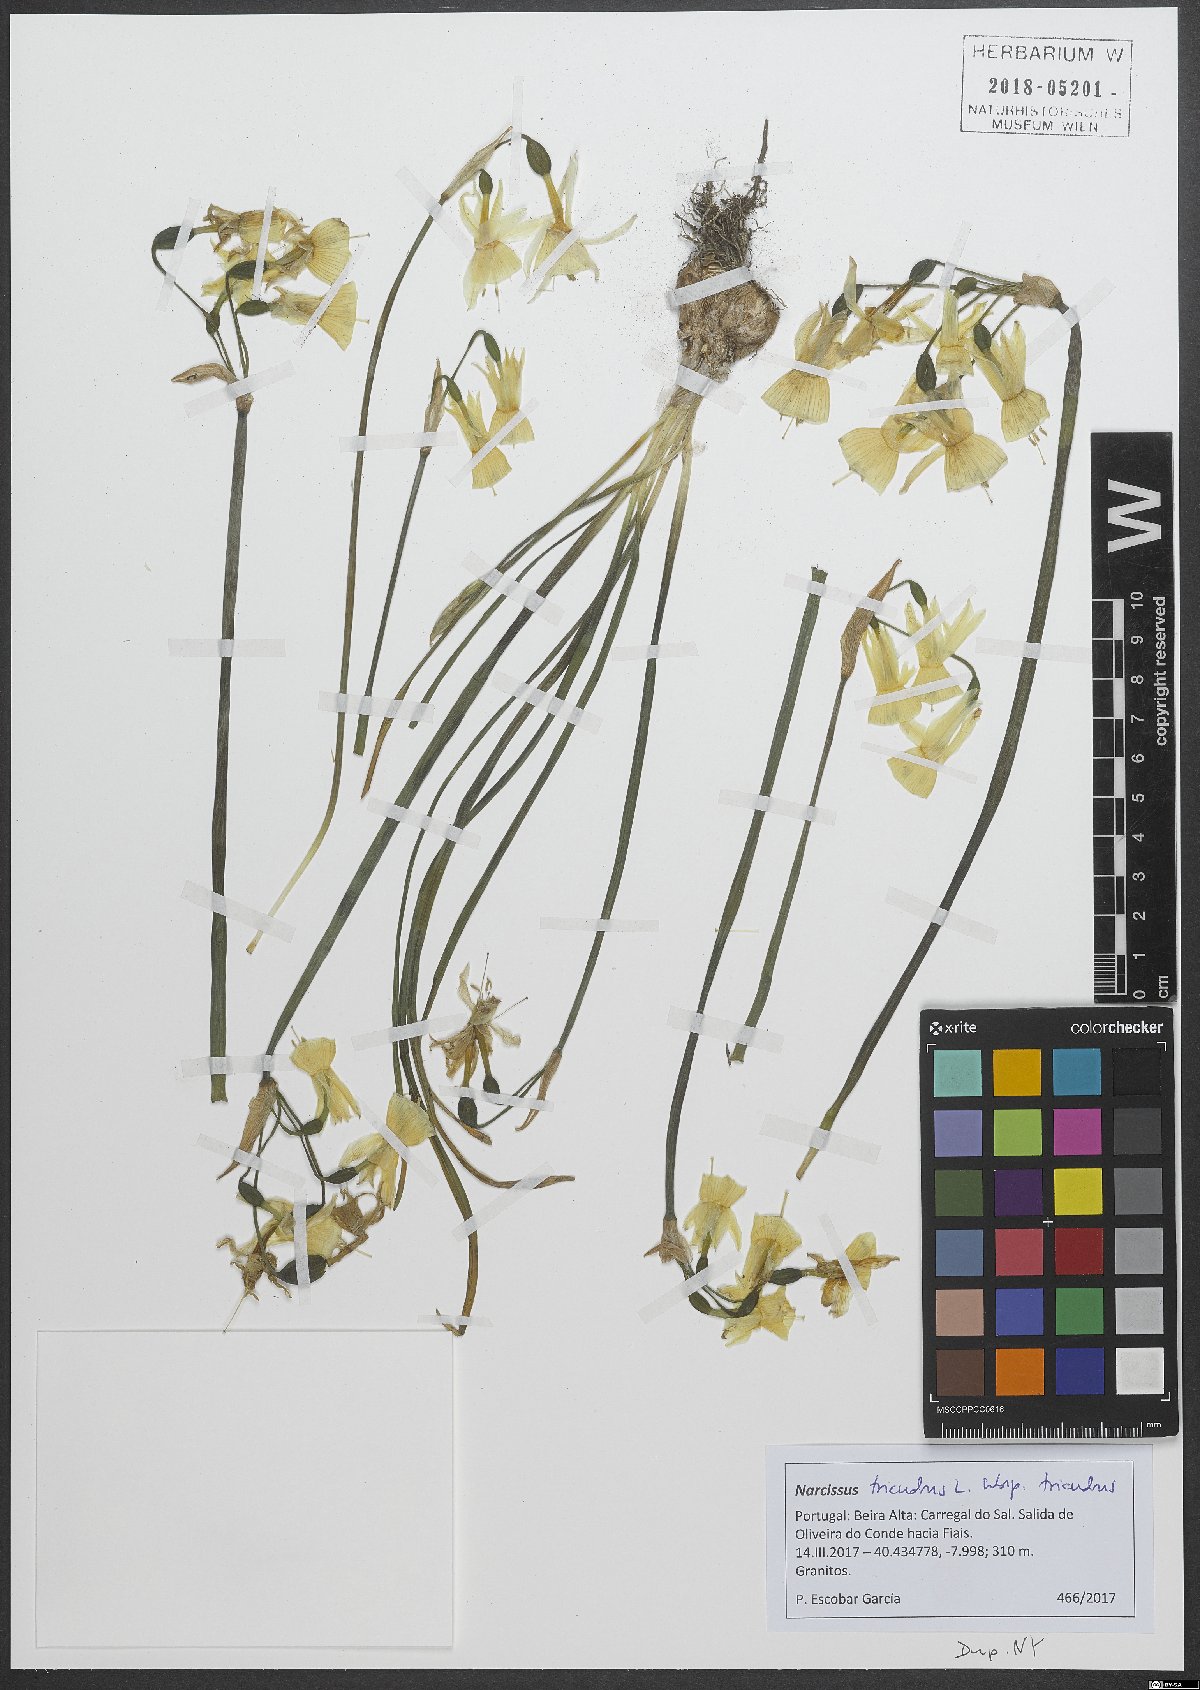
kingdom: Plantae
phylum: Tracheophyta
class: Liliopsida
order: Asparagales
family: Amaryllidaceae
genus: Narcissus
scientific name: Narcissus triandrus
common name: Angel's-tears
